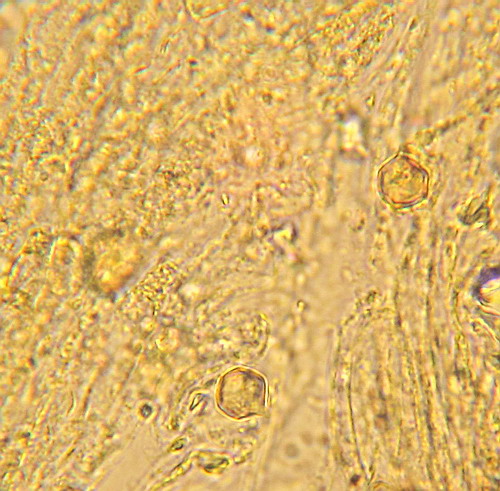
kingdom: Fungi
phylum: Basidiomycota
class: Agaricomycetes
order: Agaricales
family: Entolomataceae
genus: Entoloma
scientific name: Entoloma prunuloides
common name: mel-rødblad
